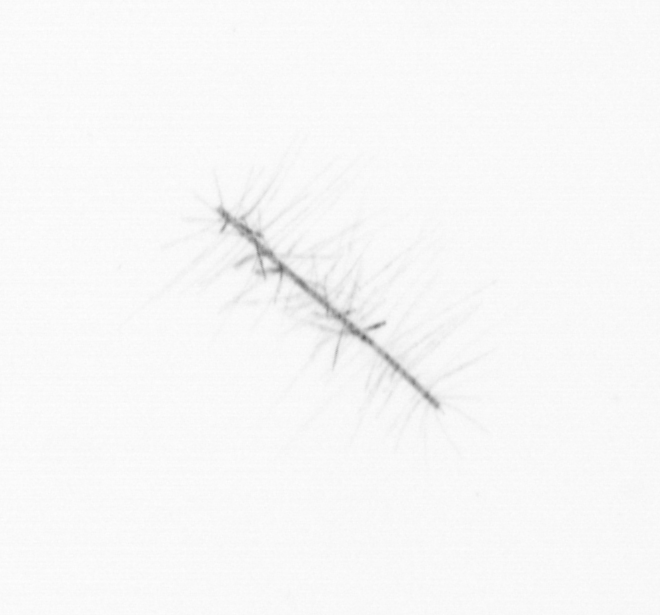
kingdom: Chromista
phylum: Ochrophyta
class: Bacillariophyceae
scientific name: Bacillariophyceae
